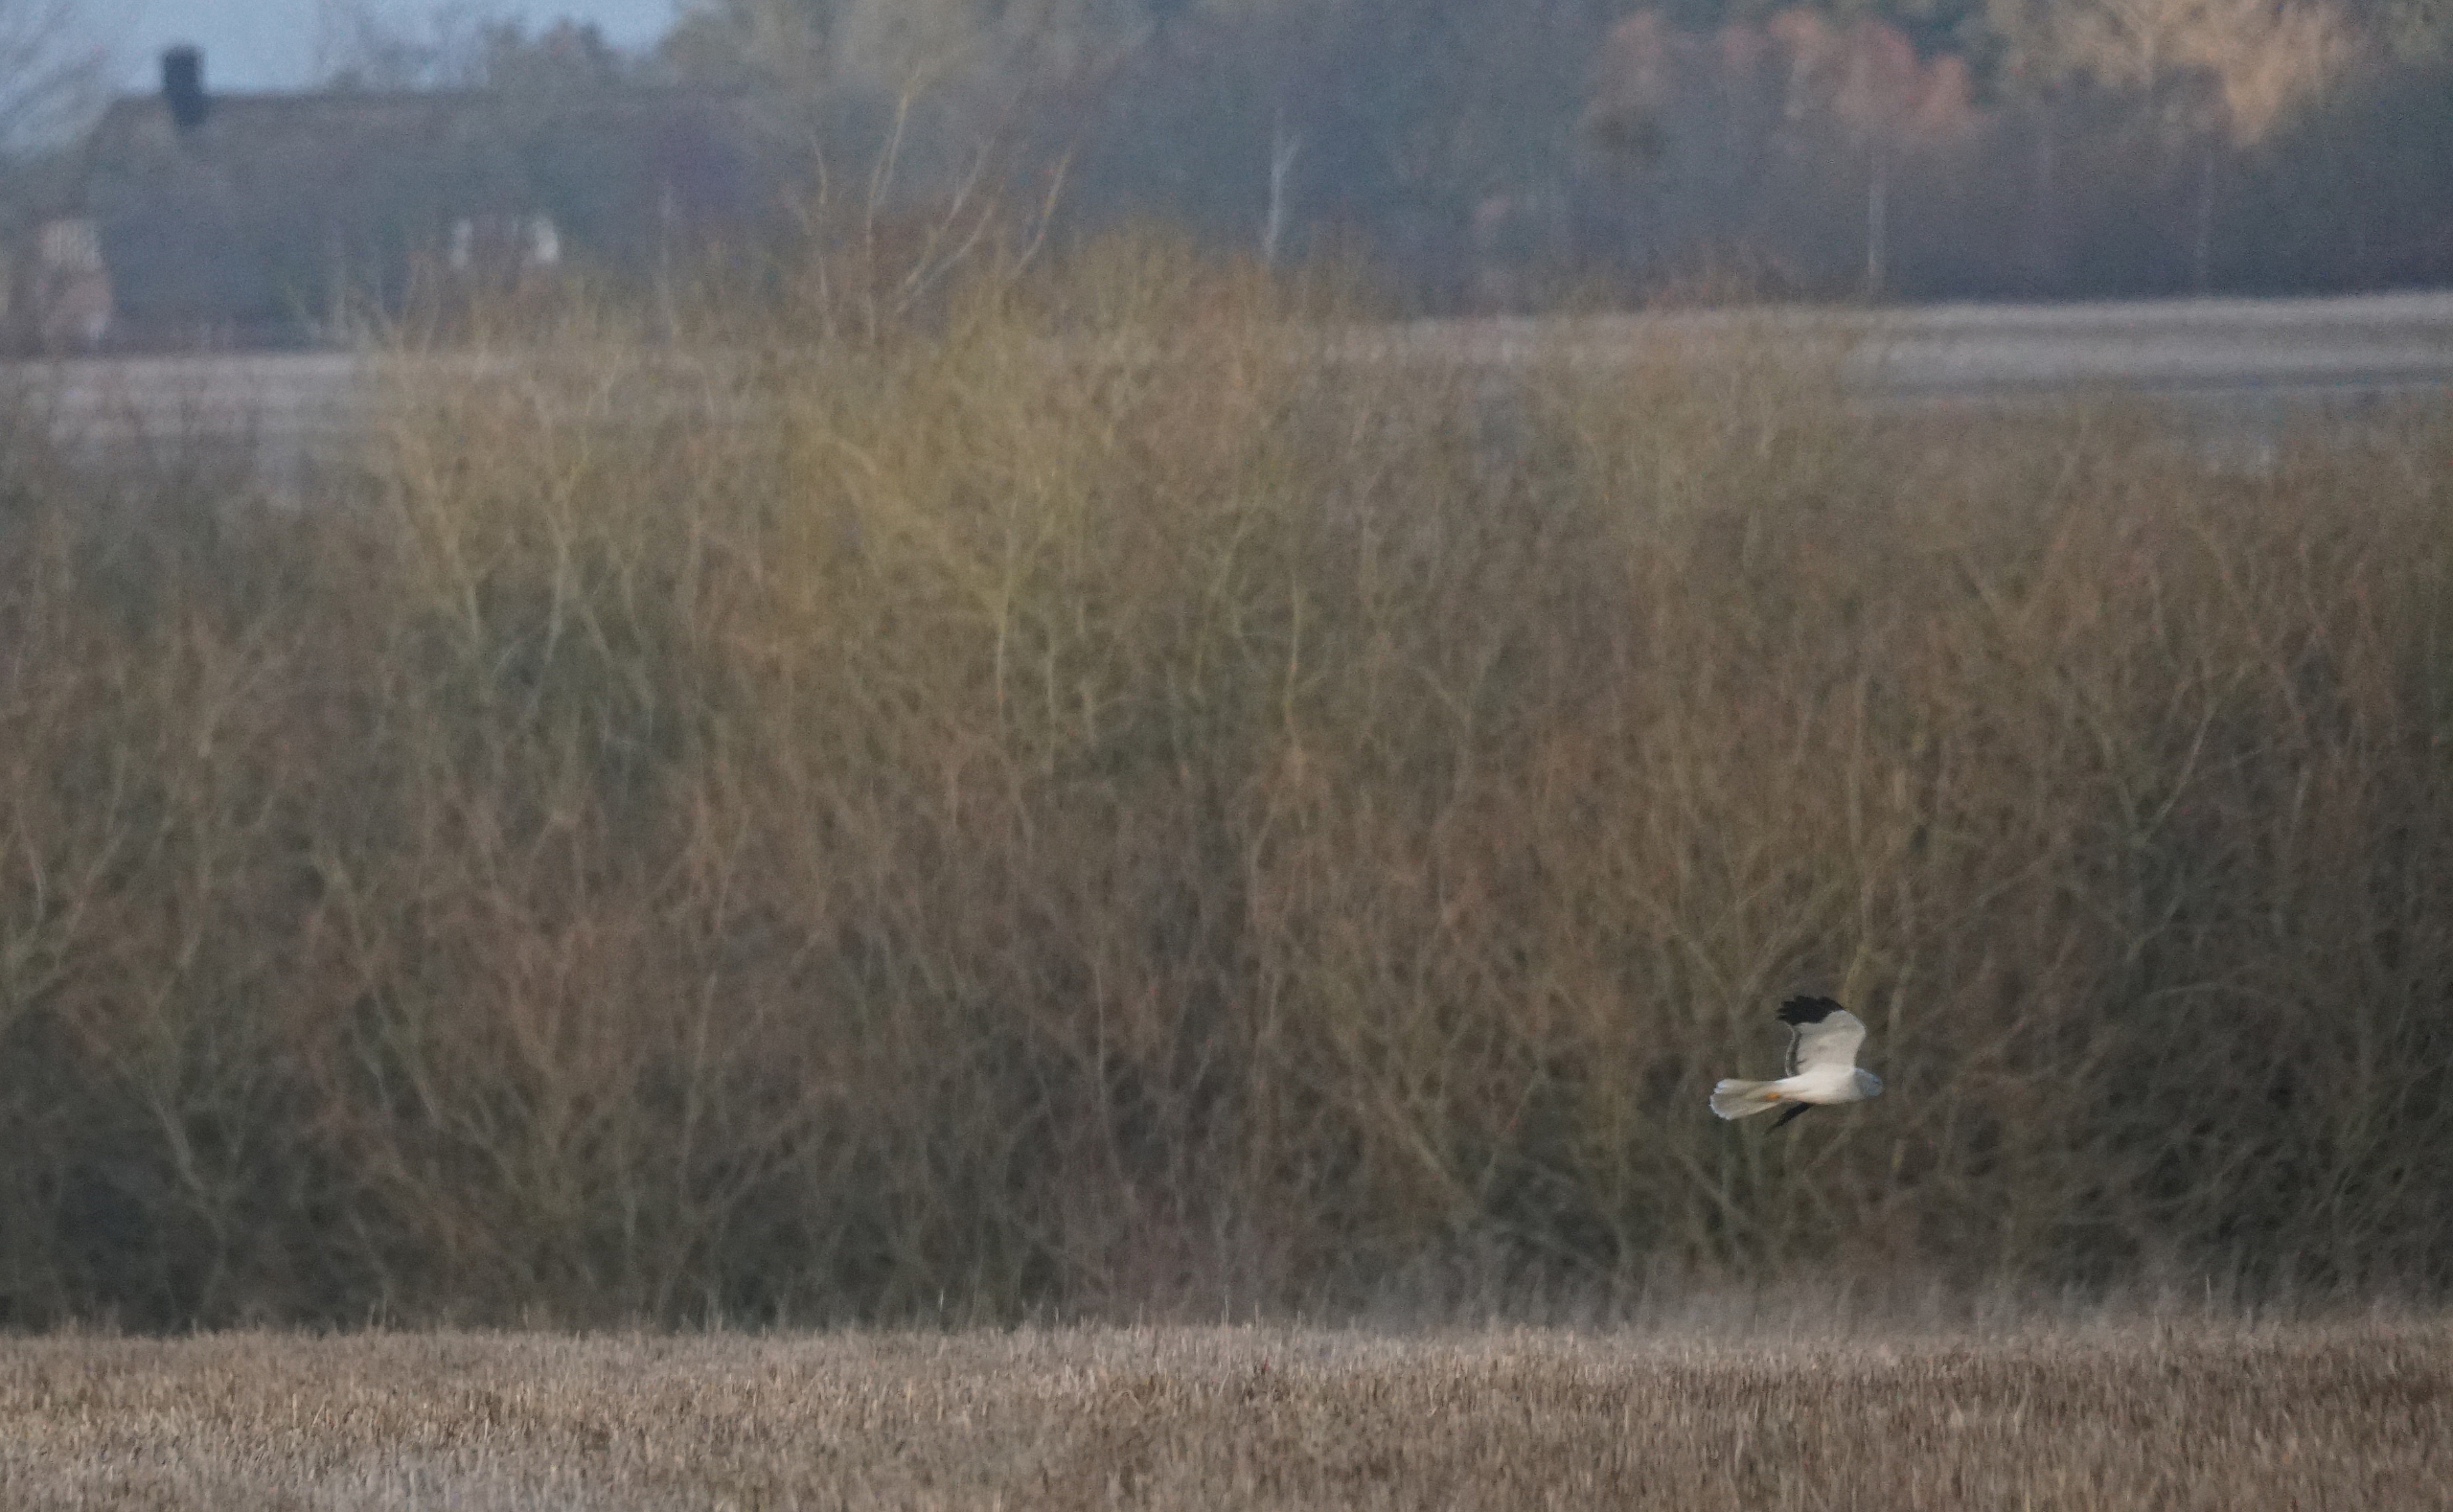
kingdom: Animalia
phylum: Chordata
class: Aves
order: Accipitriformes
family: Accipitridae
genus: Circus
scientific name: Circus cyaneus
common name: Blå kærhøg
